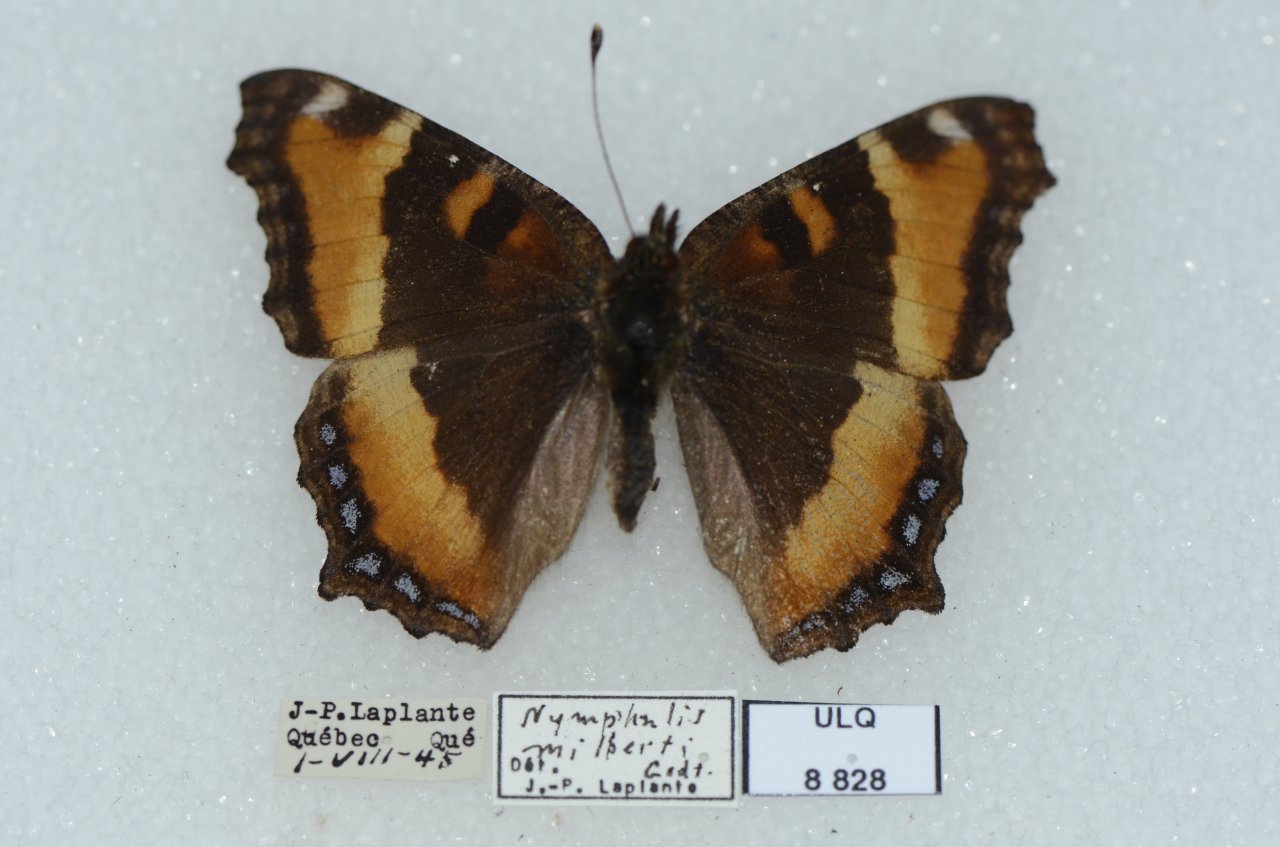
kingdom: Animalia
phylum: Arthropoda
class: Insecta
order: Lepidoptera
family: Nymphalidae
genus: Aglais
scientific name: Aglais milberti
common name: Milbert's Tortoiseshell
